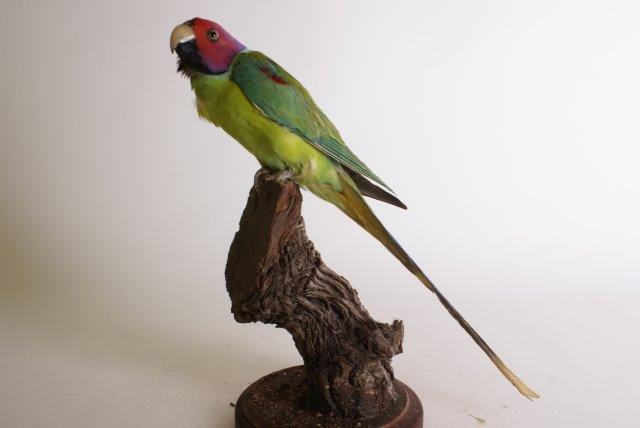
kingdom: Animalia
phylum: Chordata
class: Aves
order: Psittaciformes
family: Psittacidae
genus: Psittacula
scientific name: Psittacula cyanocephala
